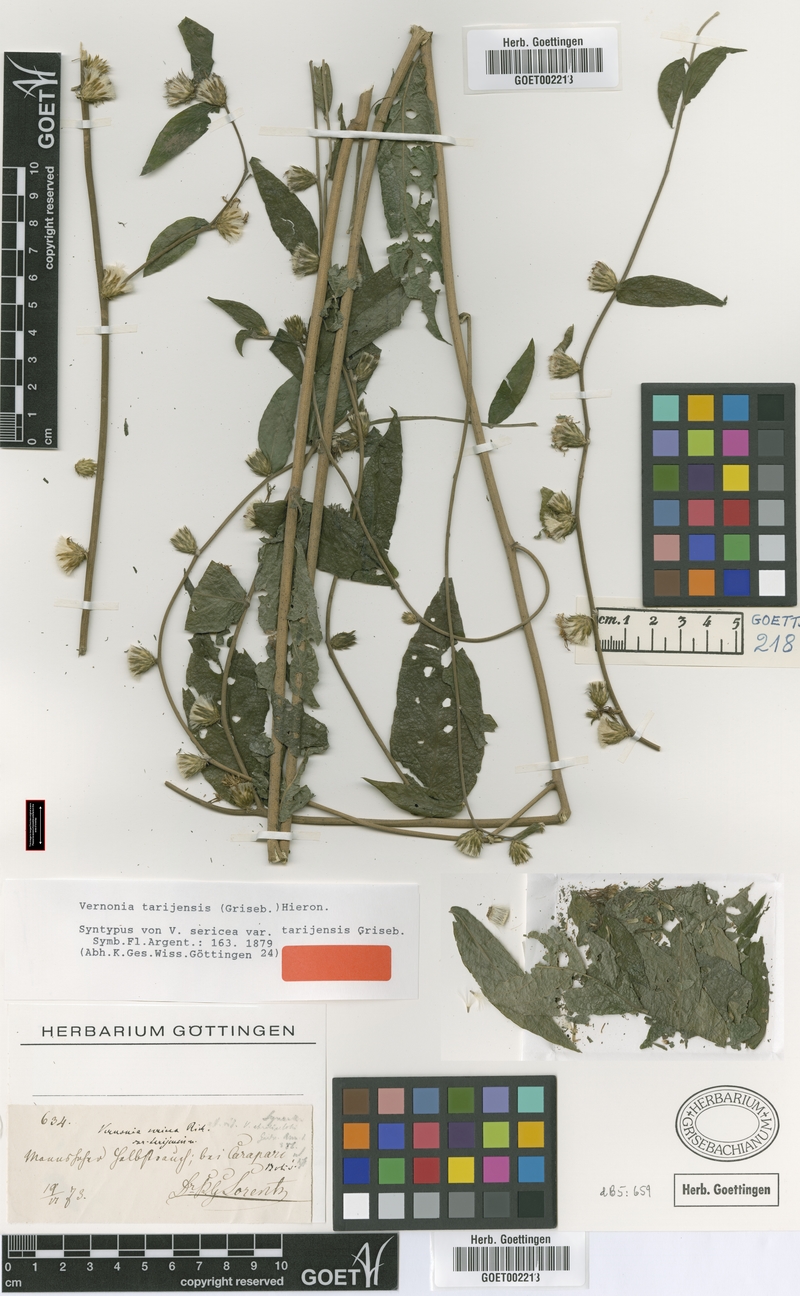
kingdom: Plantae
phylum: Tracheophyta
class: Magnoliopsida
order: Asterales
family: Asteraceae
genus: Lepidaploa
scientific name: Lepidaploa tarijensis
